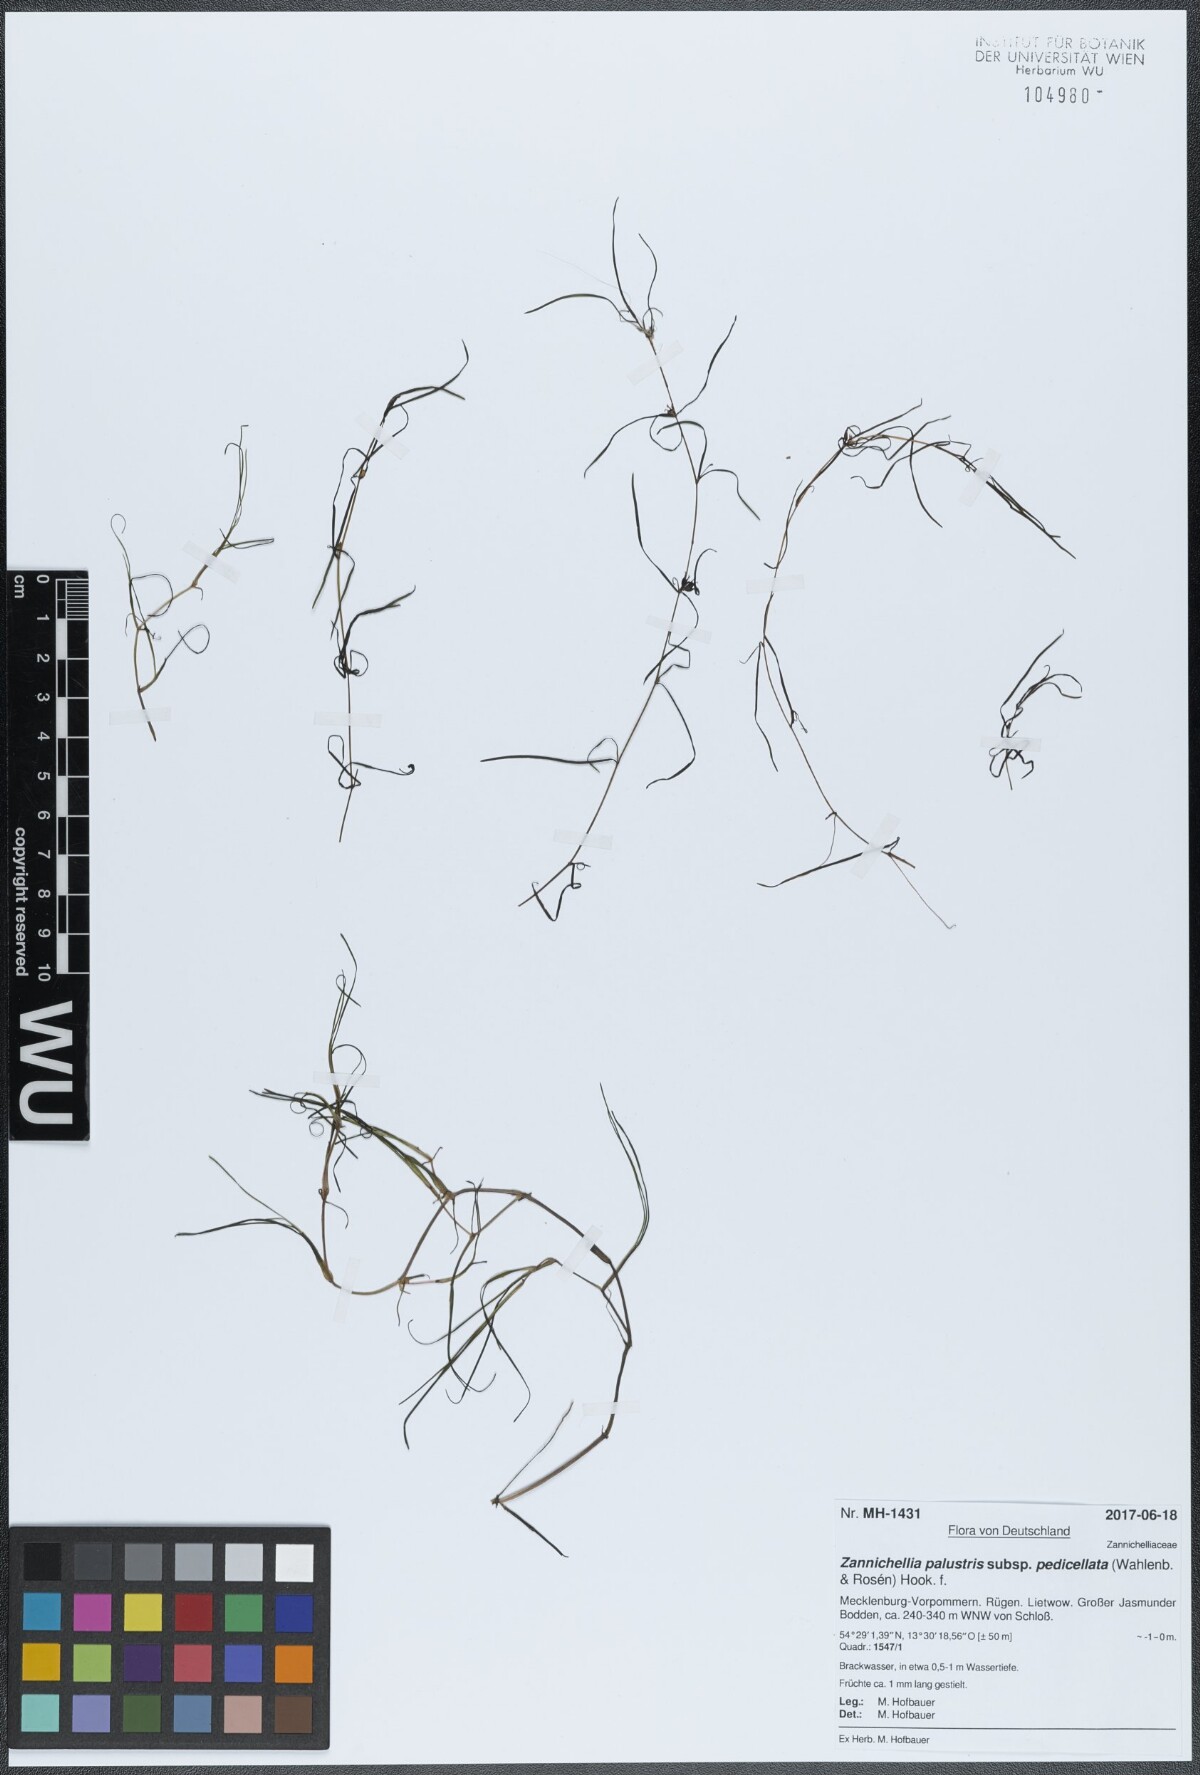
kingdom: Plantae
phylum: Tracheophyta
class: Liliopsida
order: Alismatales
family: Potamogetonaceae
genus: Zannichellia
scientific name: Zannichellia palustris
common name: Horned pondweed
